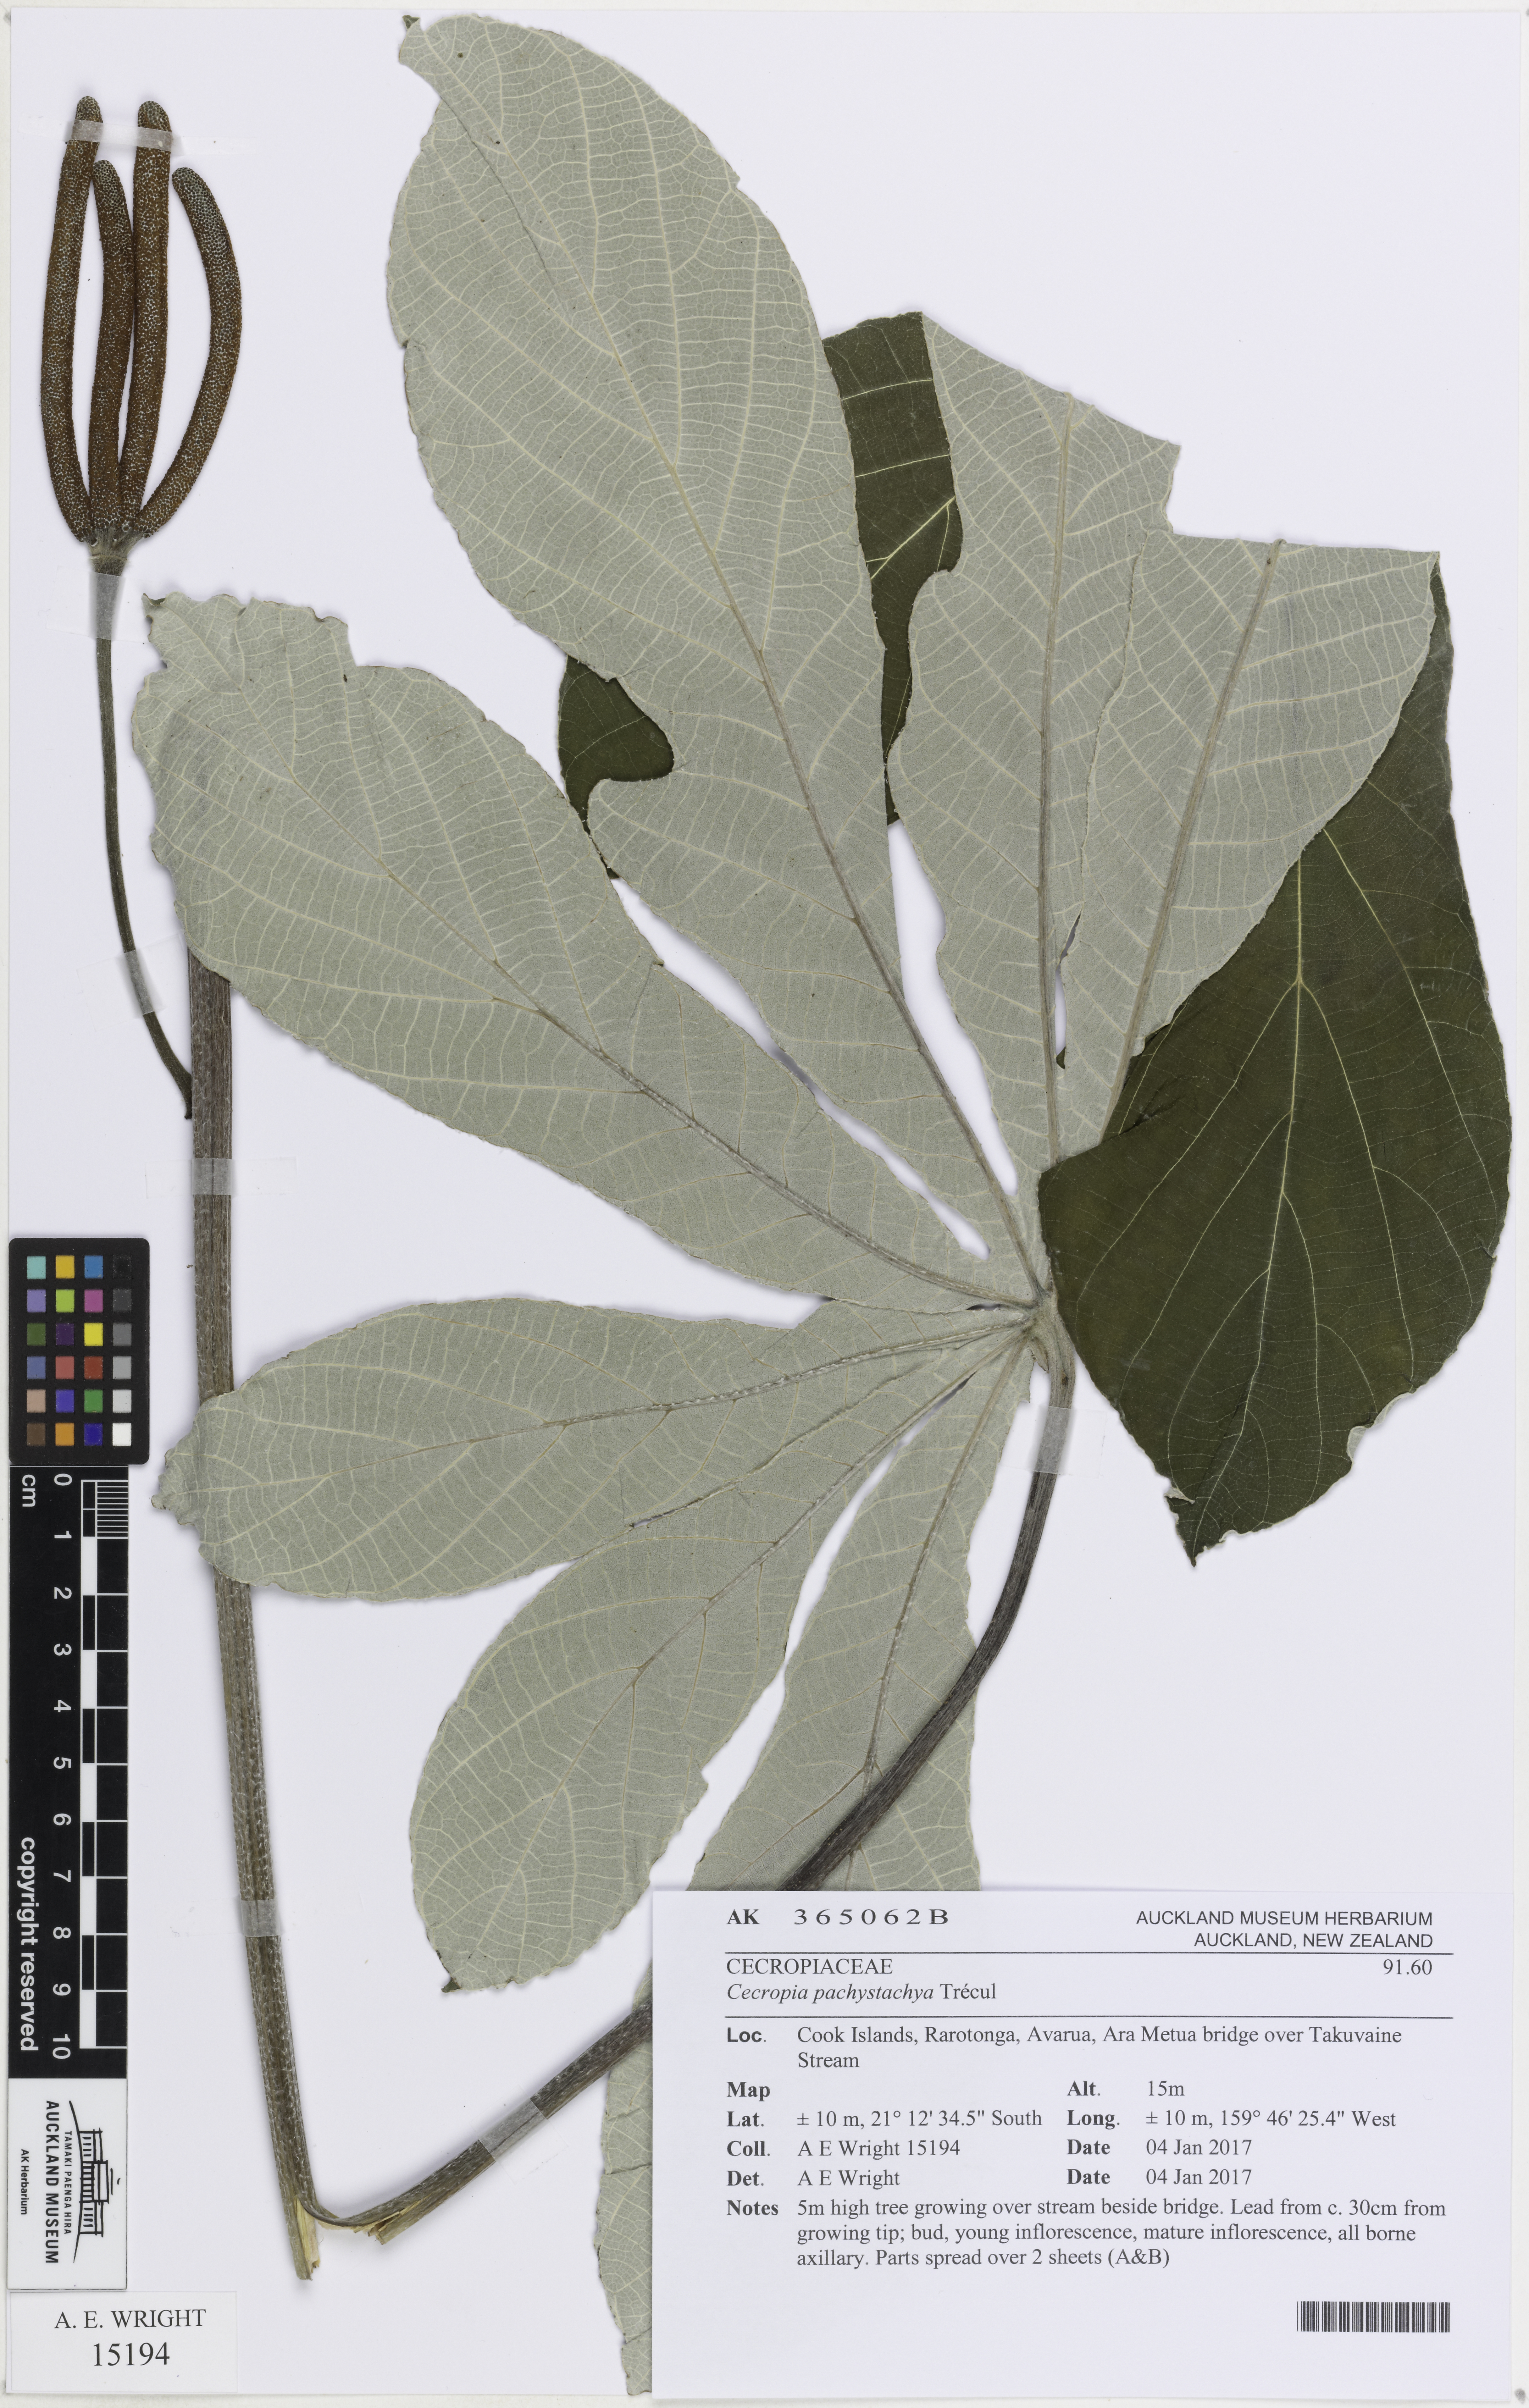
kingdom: Plantae
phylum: Tracheophyta
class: Magnoliopsida
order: Rosales
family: Urticaceae
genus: Cecropia
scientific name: Cecropia pachystachya
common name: Ambay pumpwood
